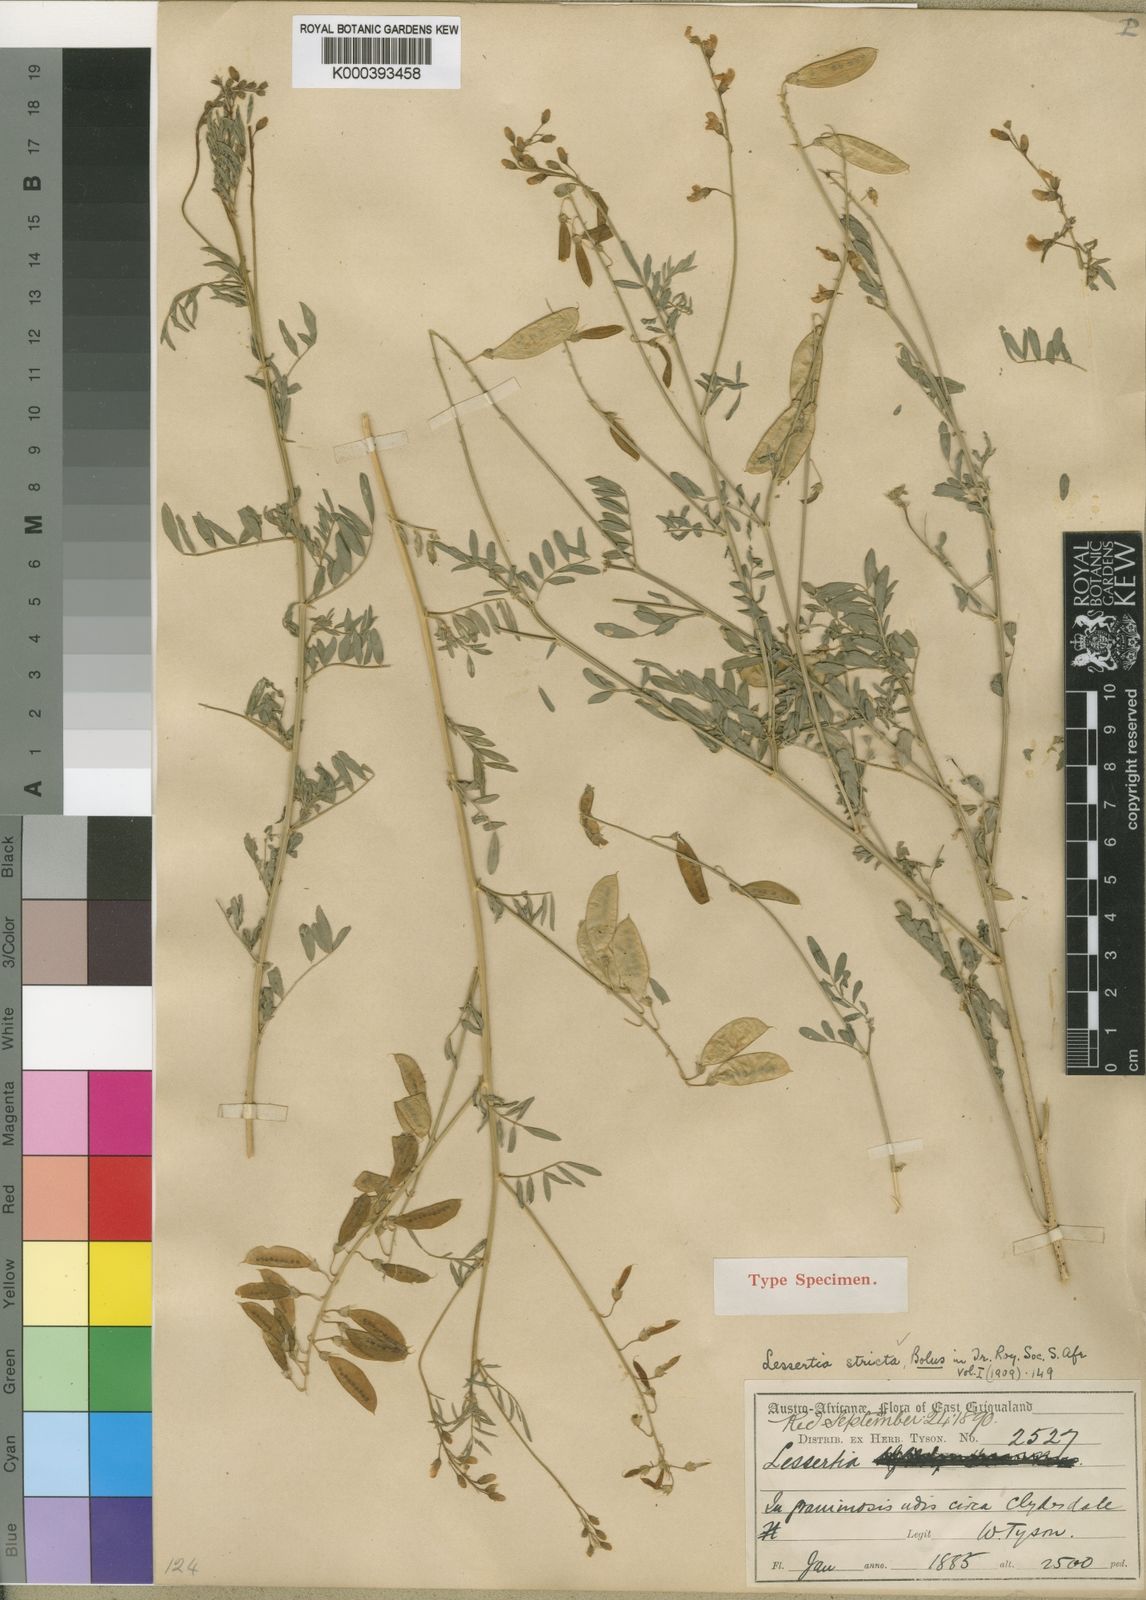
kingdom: Plantae
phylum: Tracheophyta
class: Magnoliopsida
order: Fabales
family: Fabaceae
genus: Lessertia
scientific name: Lessertia stricta
